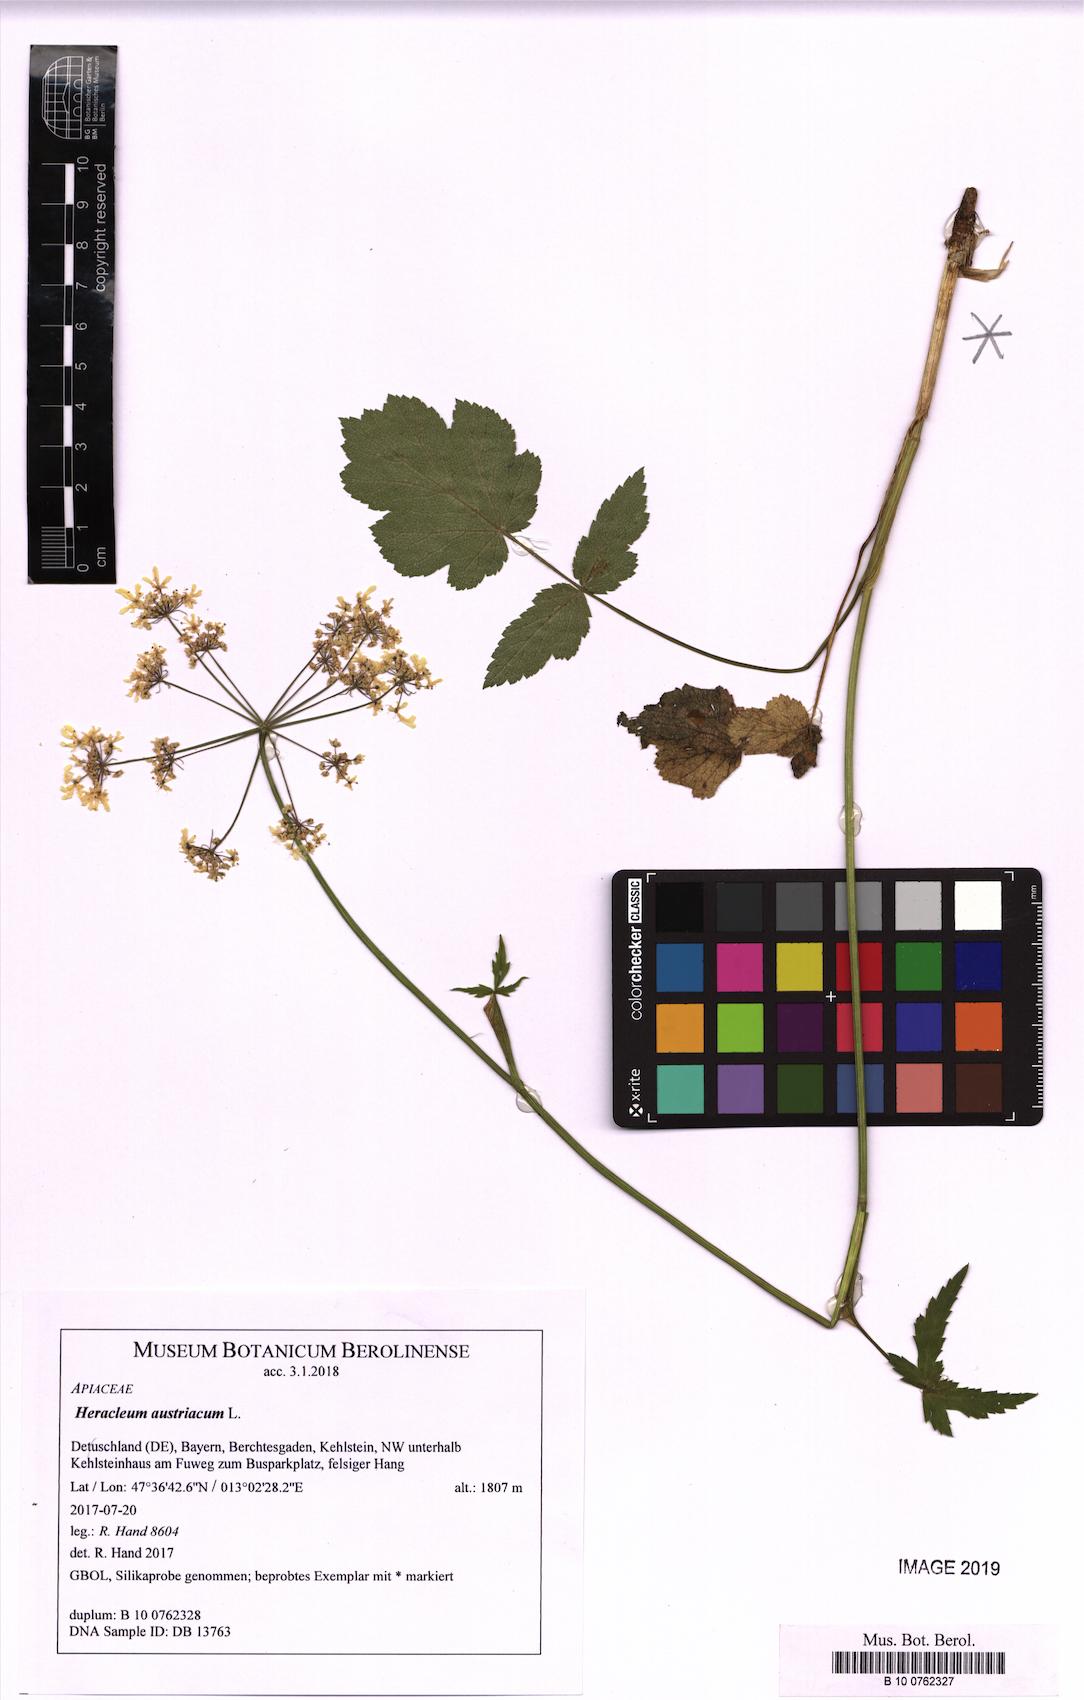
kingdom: Plantae
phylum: Tracheophyta
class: Magnoliopsida
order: Apiales
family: Apiaceae
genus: Heracleum
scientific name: Heracleum austriacum
